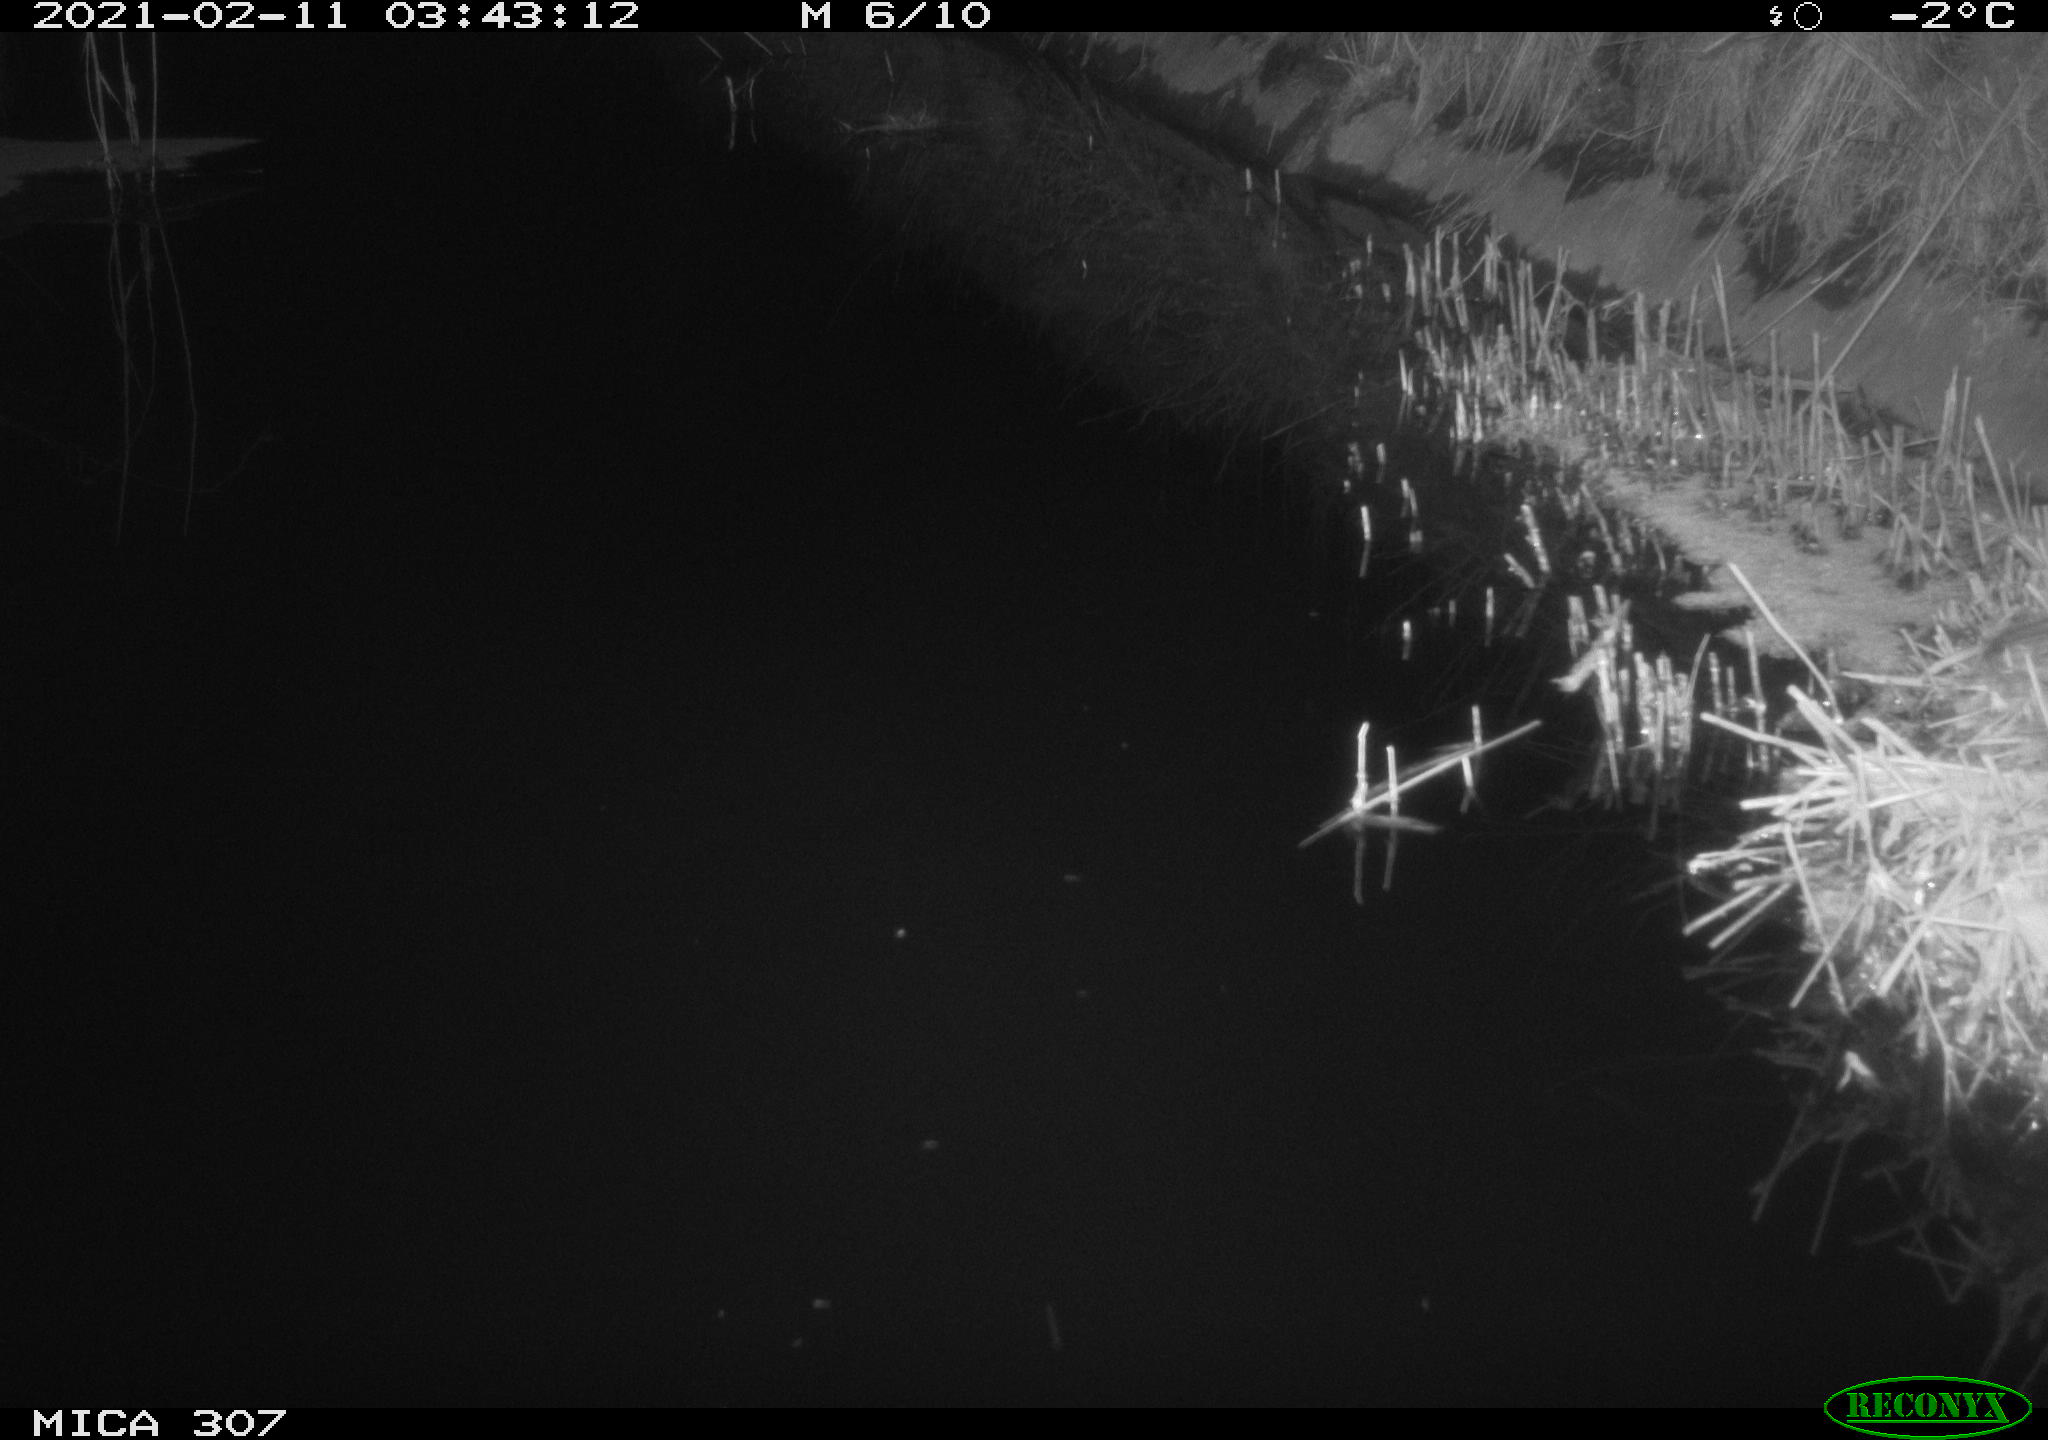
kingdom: Animalia
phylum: Chordata
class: Mammalia
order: Rodentia
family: Muridae
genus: Rattus
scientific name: Rattus norvegicus
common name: Brown rat
